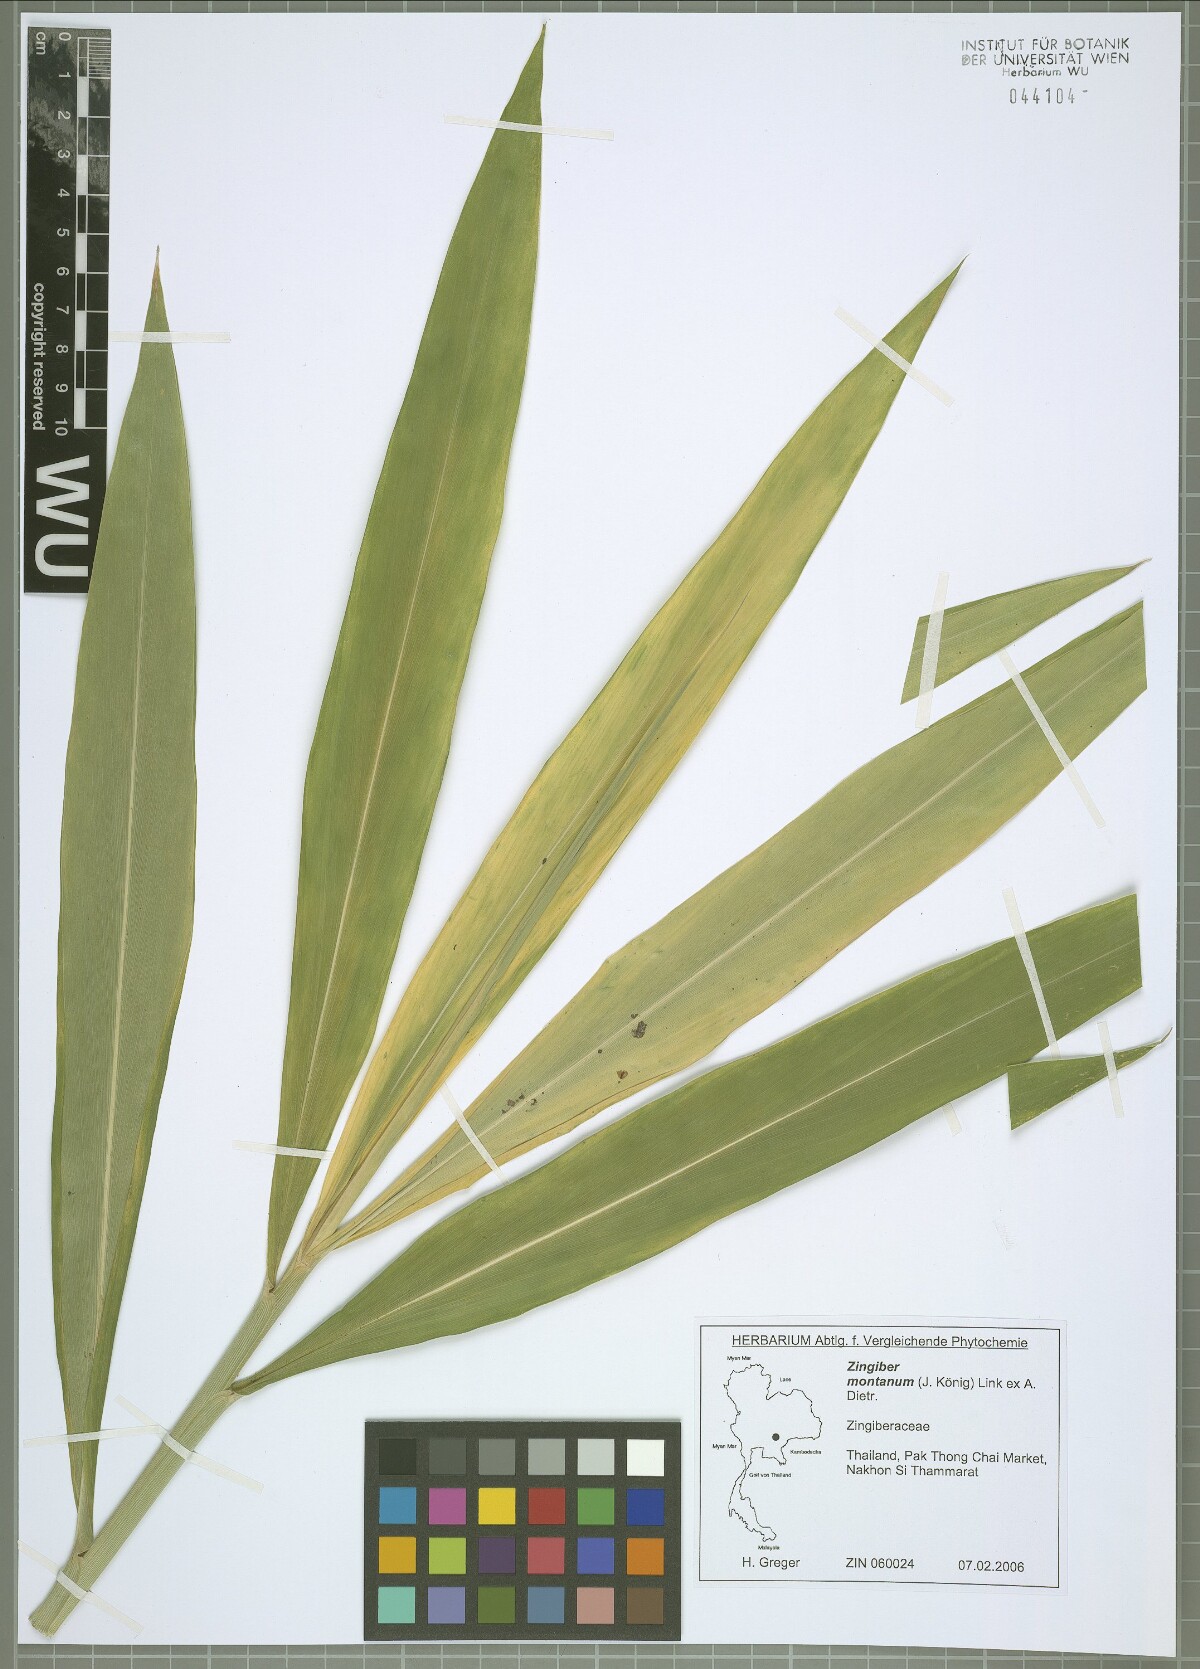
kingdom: Plantae
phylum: Tracheophyta
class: Liliopsida
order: Zingiberales
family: Zingiberaceae
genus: Zingiber
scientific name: Zingiber montanum
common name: Bengal ginger
